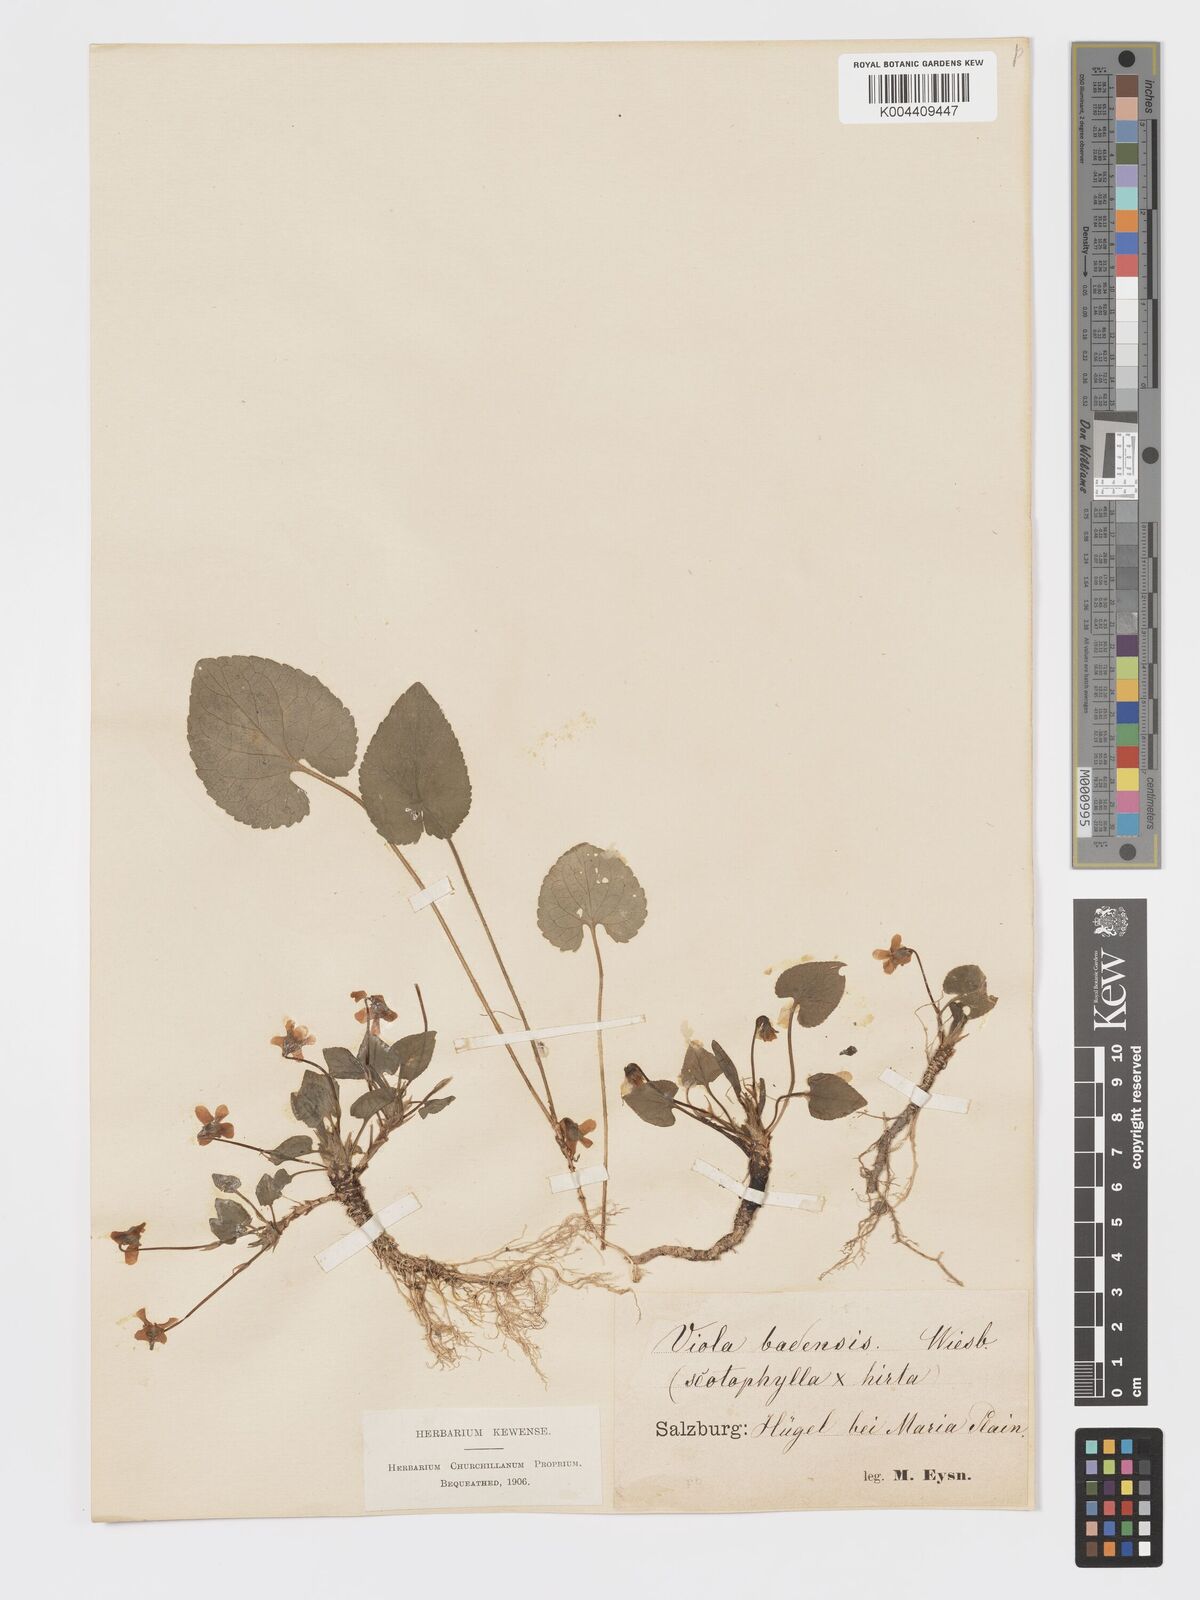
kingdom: Plantae
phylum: Tracheophyta
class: Magnoliopsida
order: Malpighiales
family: Violaceae
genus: Viola
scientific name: Viola alba
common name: White violet
